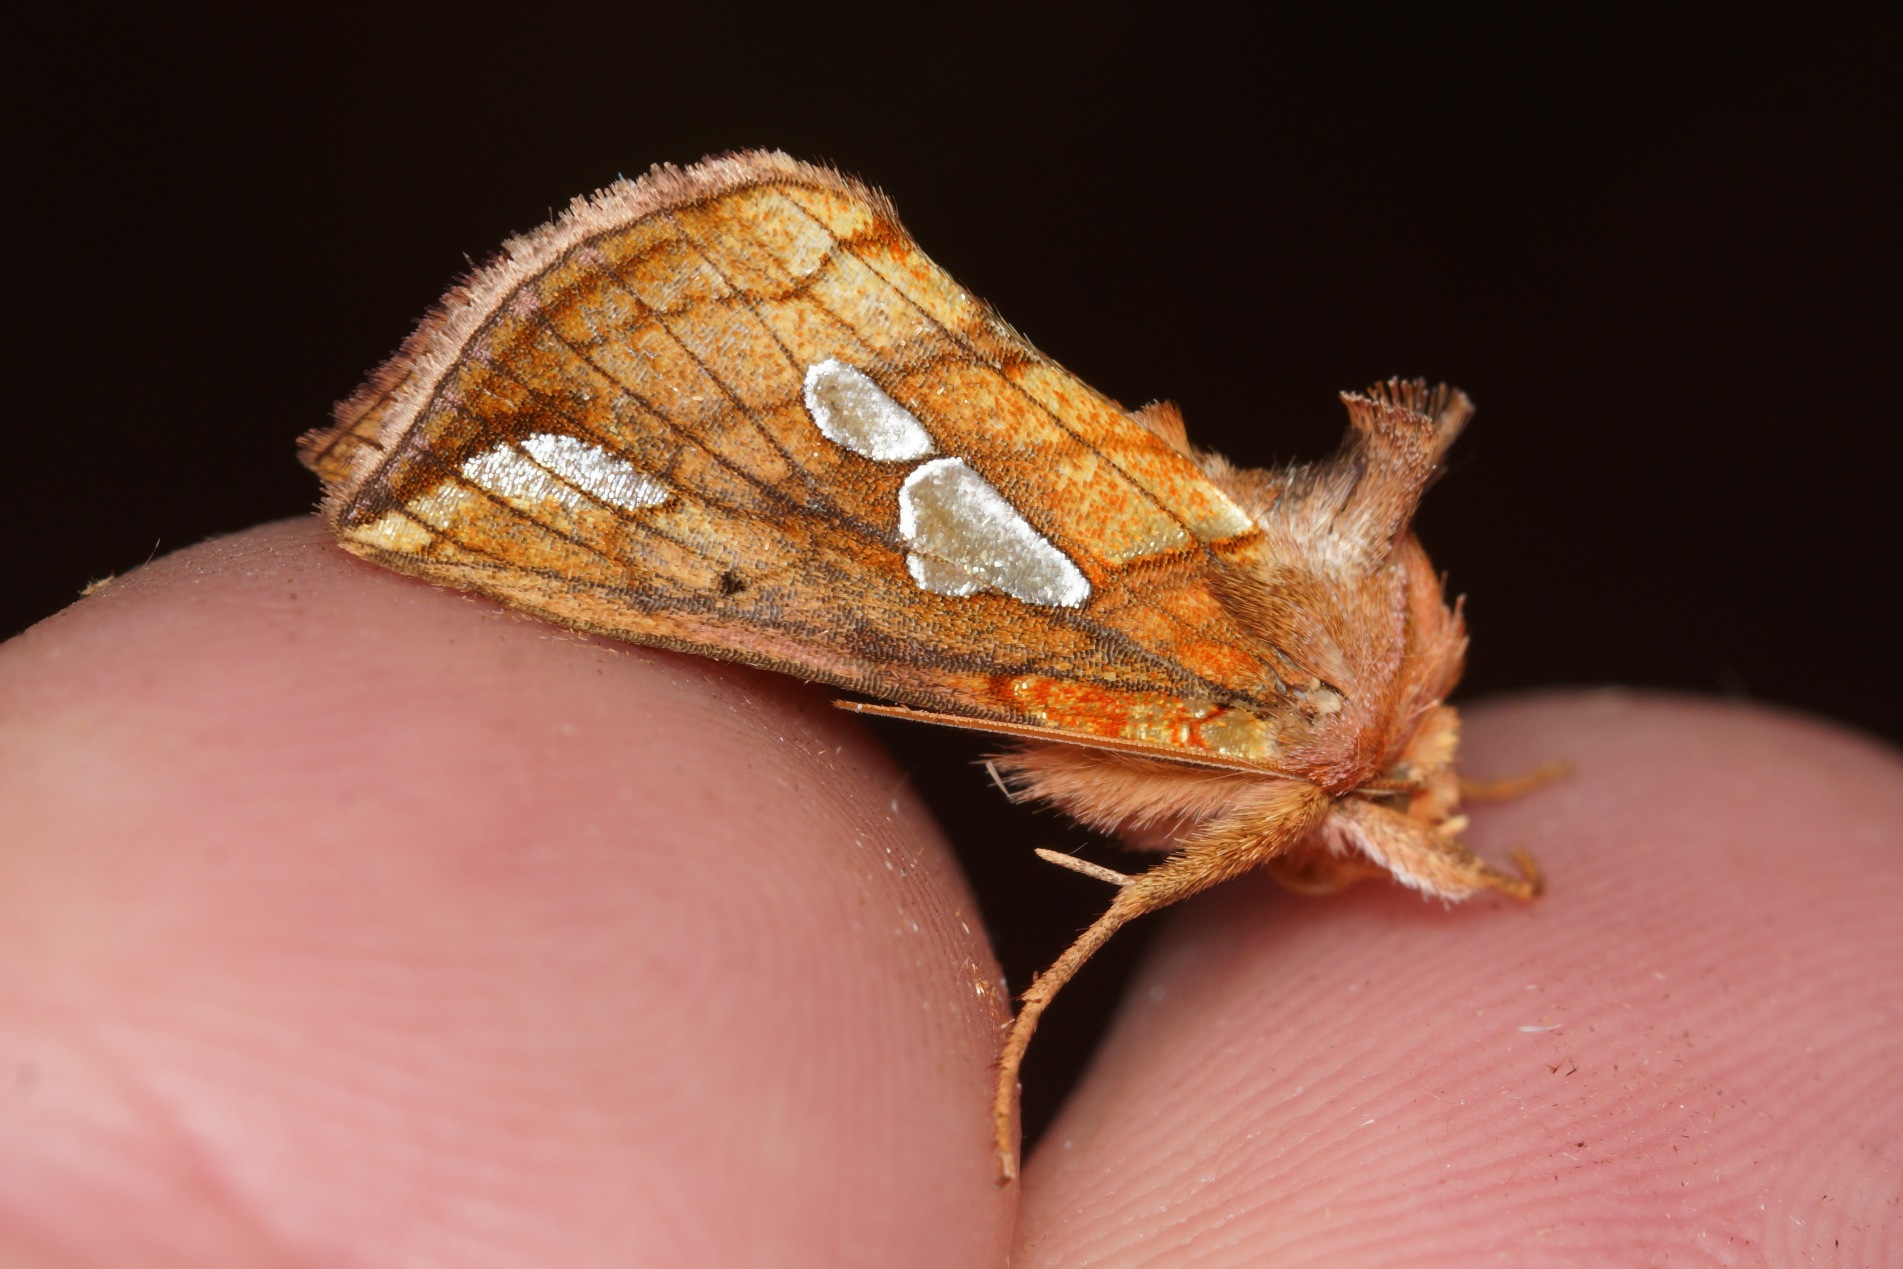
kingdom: Animalia
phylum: Arthropoda
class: Insecta
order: Lepidoptera
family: Noctuidae
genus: Plusia
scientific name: Plusia putnami
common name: Lille perlemormetalugle
